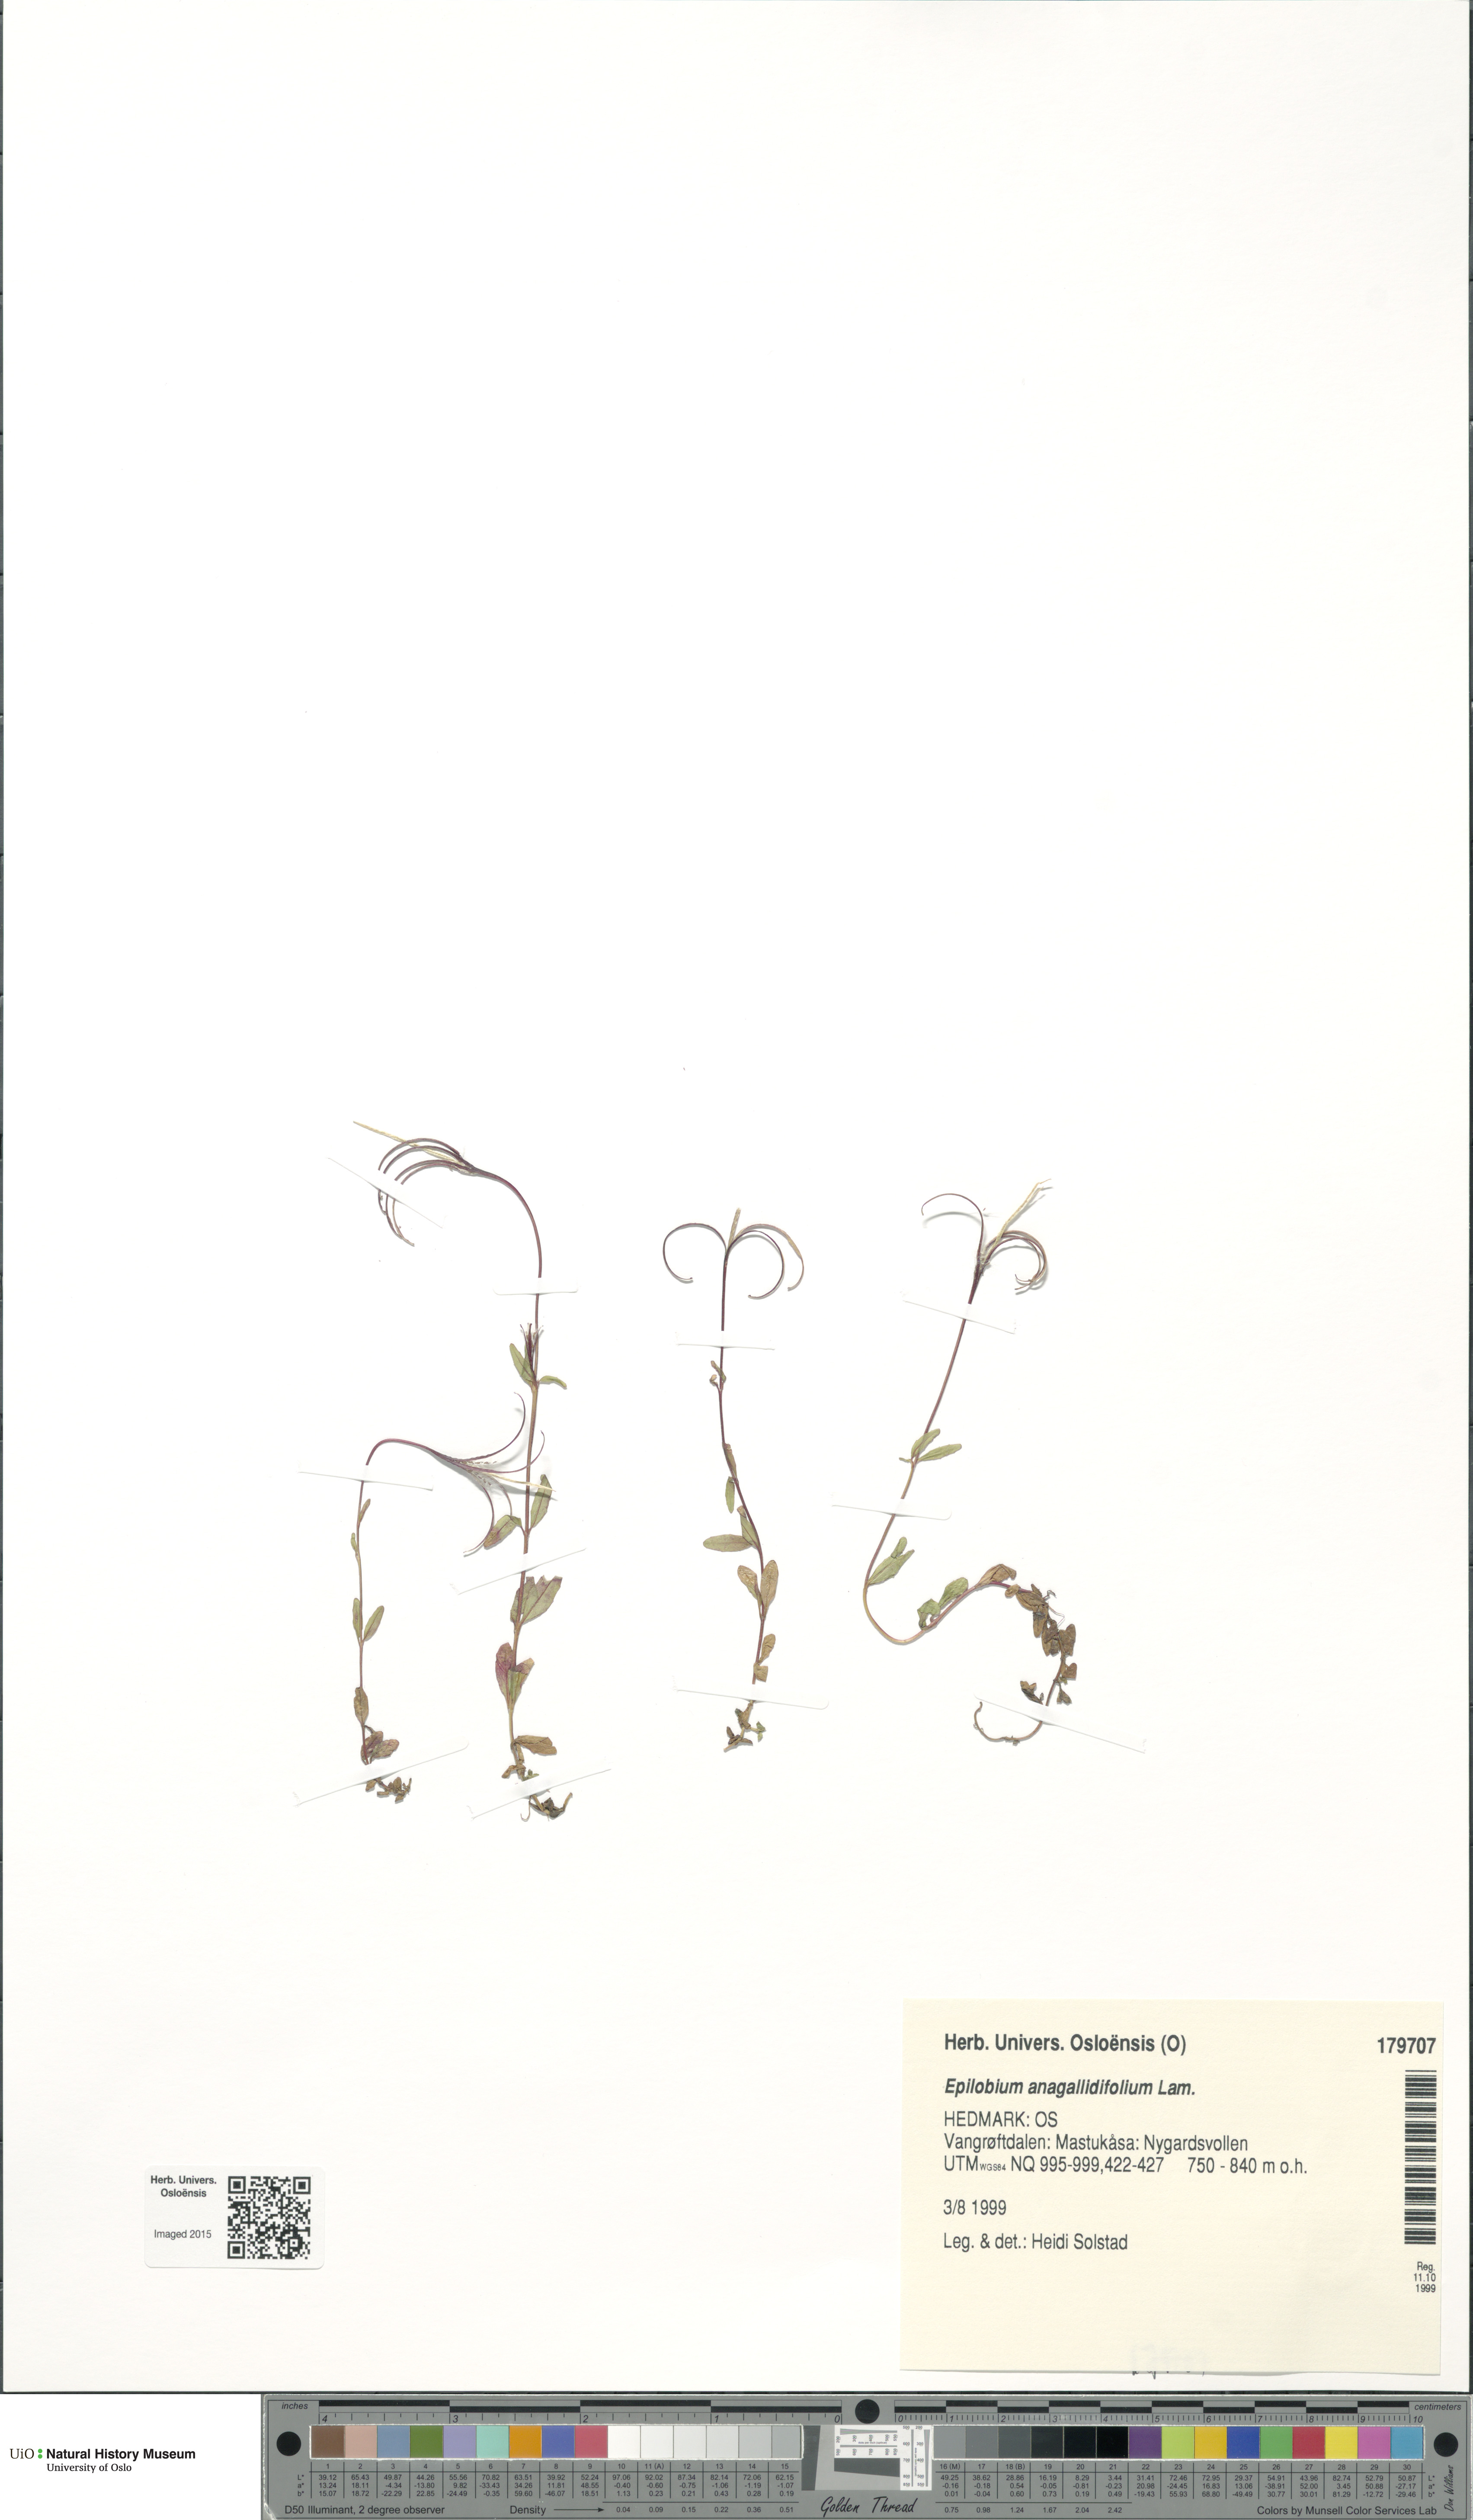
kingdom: Plantae
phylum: Tracheophyta
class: Magnoliopsida
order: Myrtales
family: Onagraceae
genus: Epilobium
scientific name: Epilobium anagallidifolium
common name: Alpine willowherb
